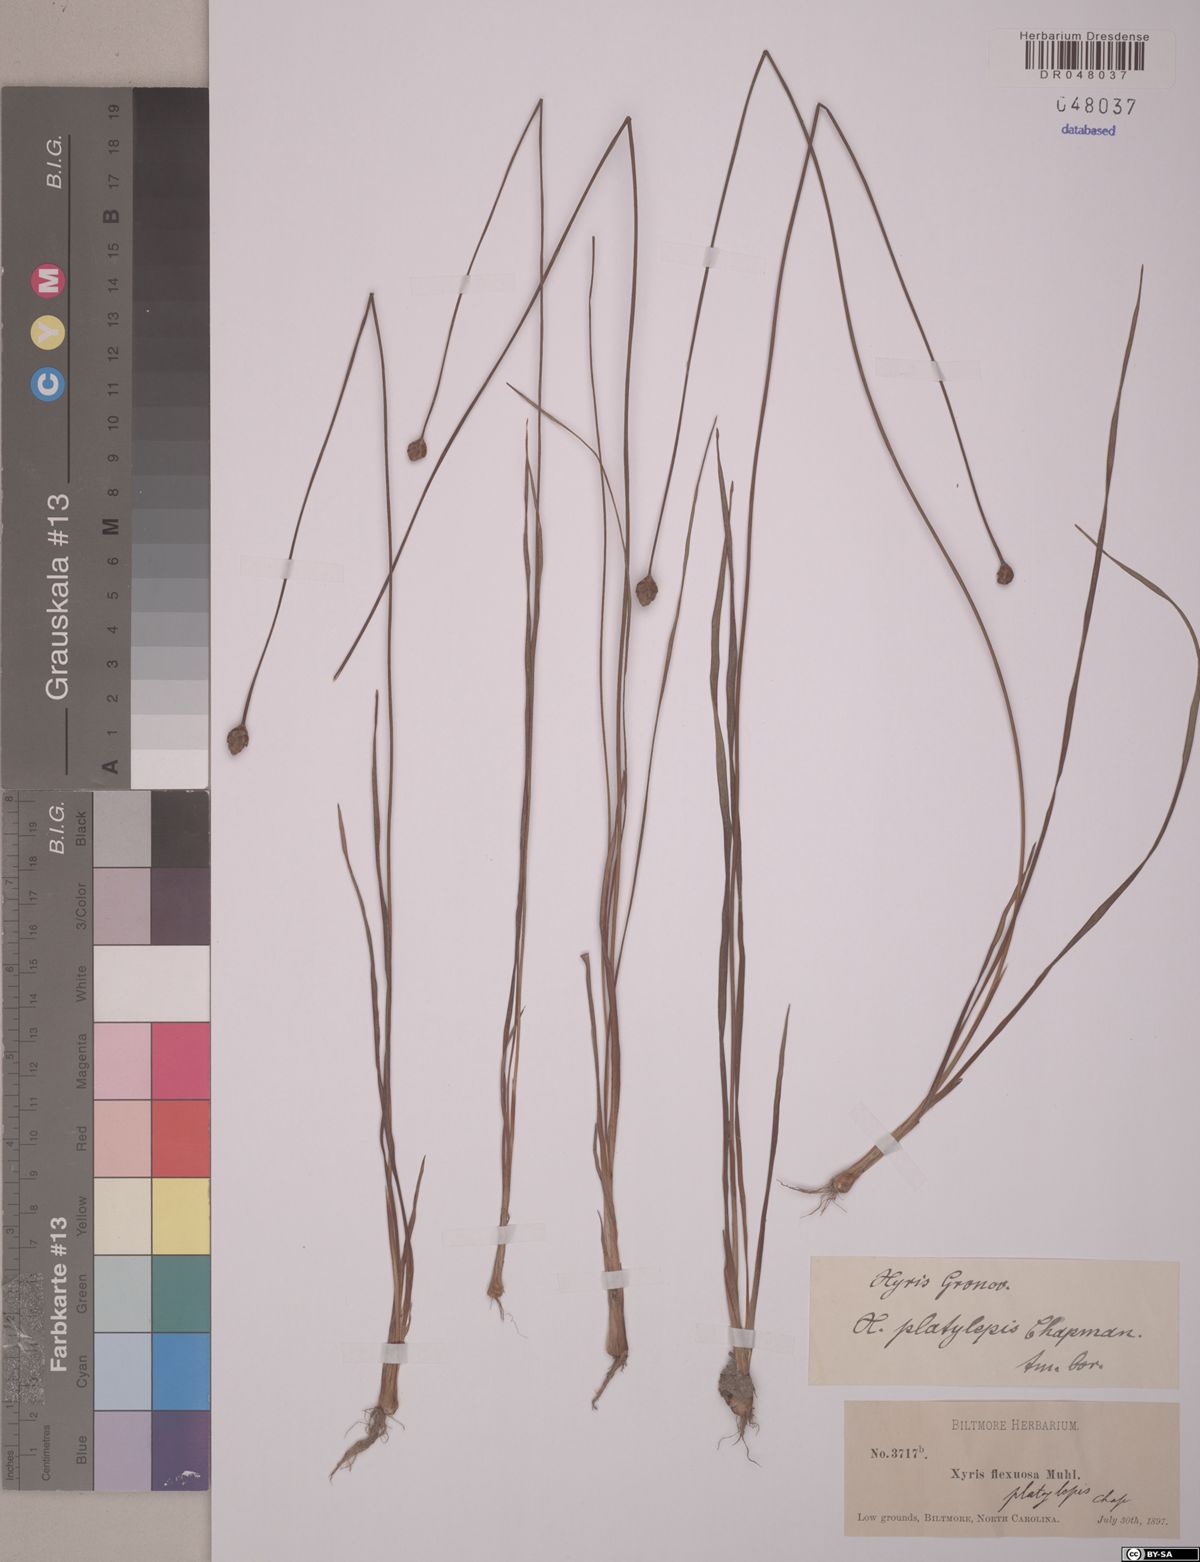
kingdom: Plantae
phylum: Tracheophyta
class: Liliopsida
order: Poales
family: Xyridaceae
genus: Xyris
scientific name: Xyris platylepis
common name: Tall yelloweyed grass
